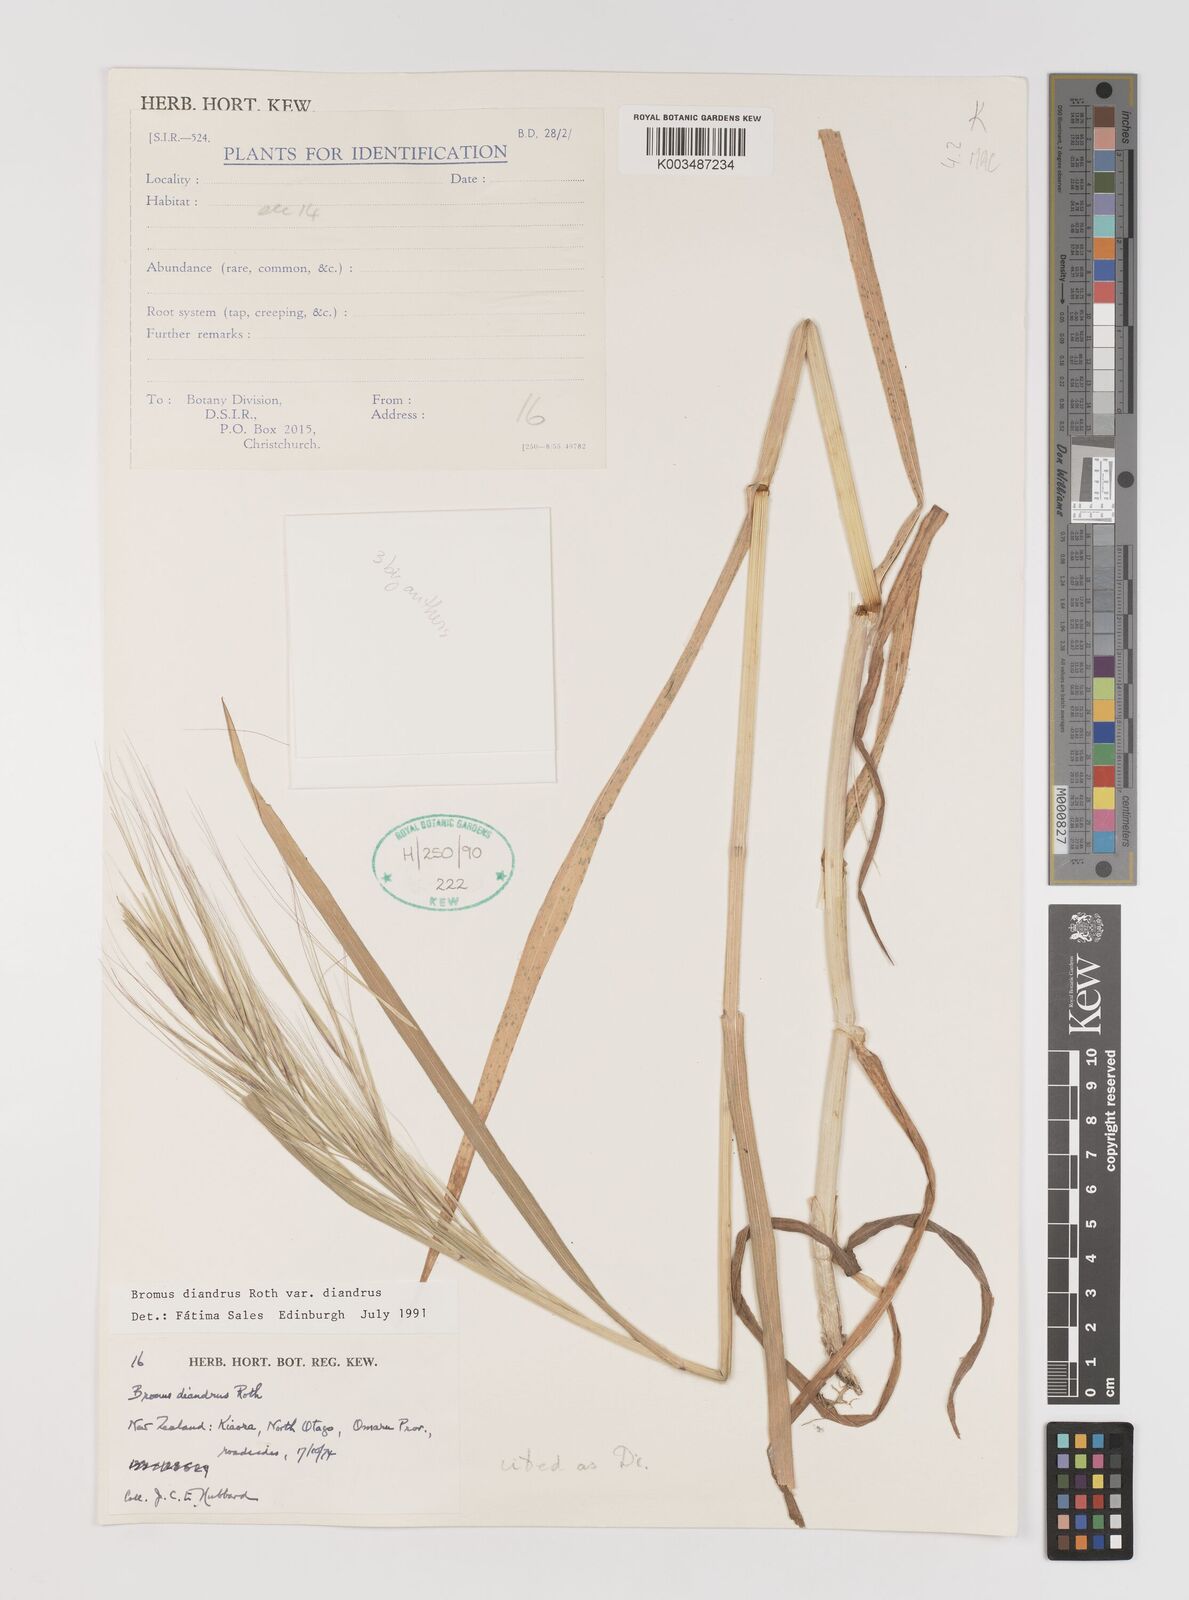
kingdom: Plantae
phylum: Tracheophyta
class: Liliopsida
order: Poales
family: Poaceae
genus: Bromus
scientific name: Bromus diandrus
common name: Ripgut brome
